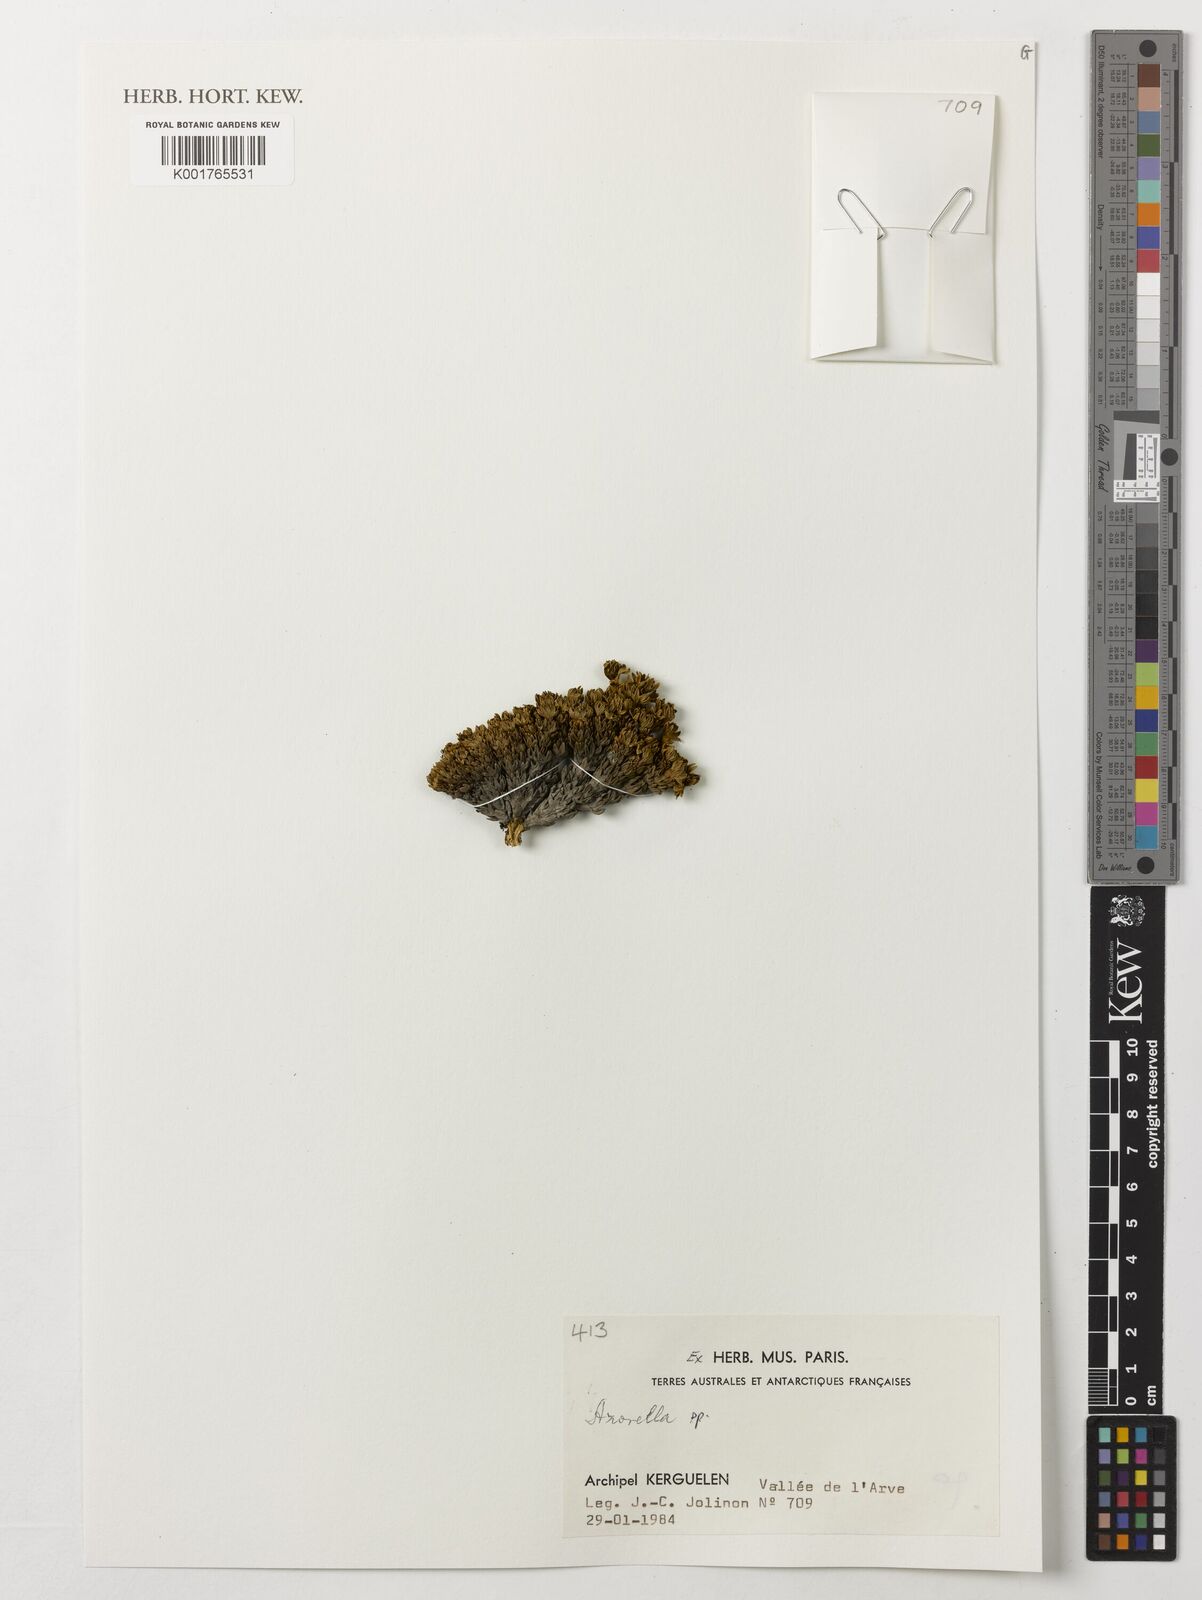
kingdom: Plantae
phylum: Tracheophyta
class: Magnoliopsida
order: Apiales
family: Apiaceae
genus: Azorella
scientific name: Azorella
